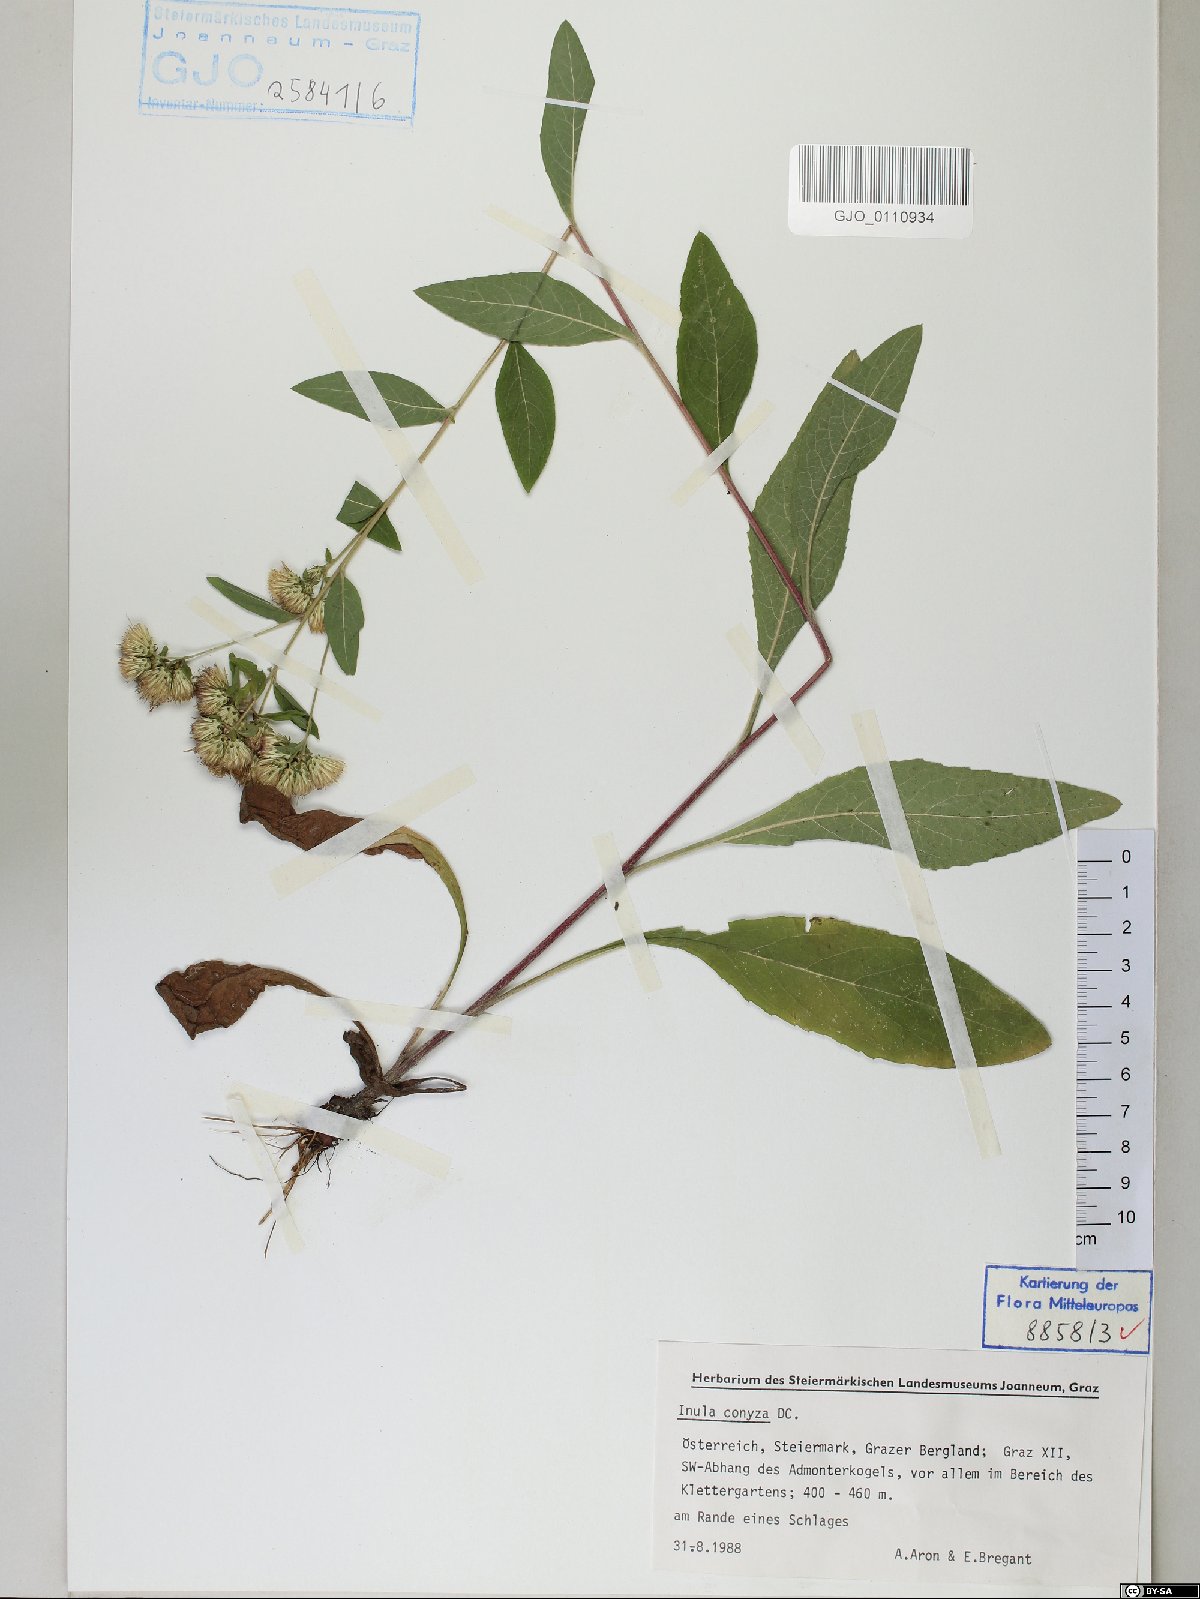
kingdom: Plantae
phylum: Tracheophyta
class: Magnoliopsida
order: Asterales
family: Asteraceae
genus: Pentanema
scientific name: Pentanema squarrosum
